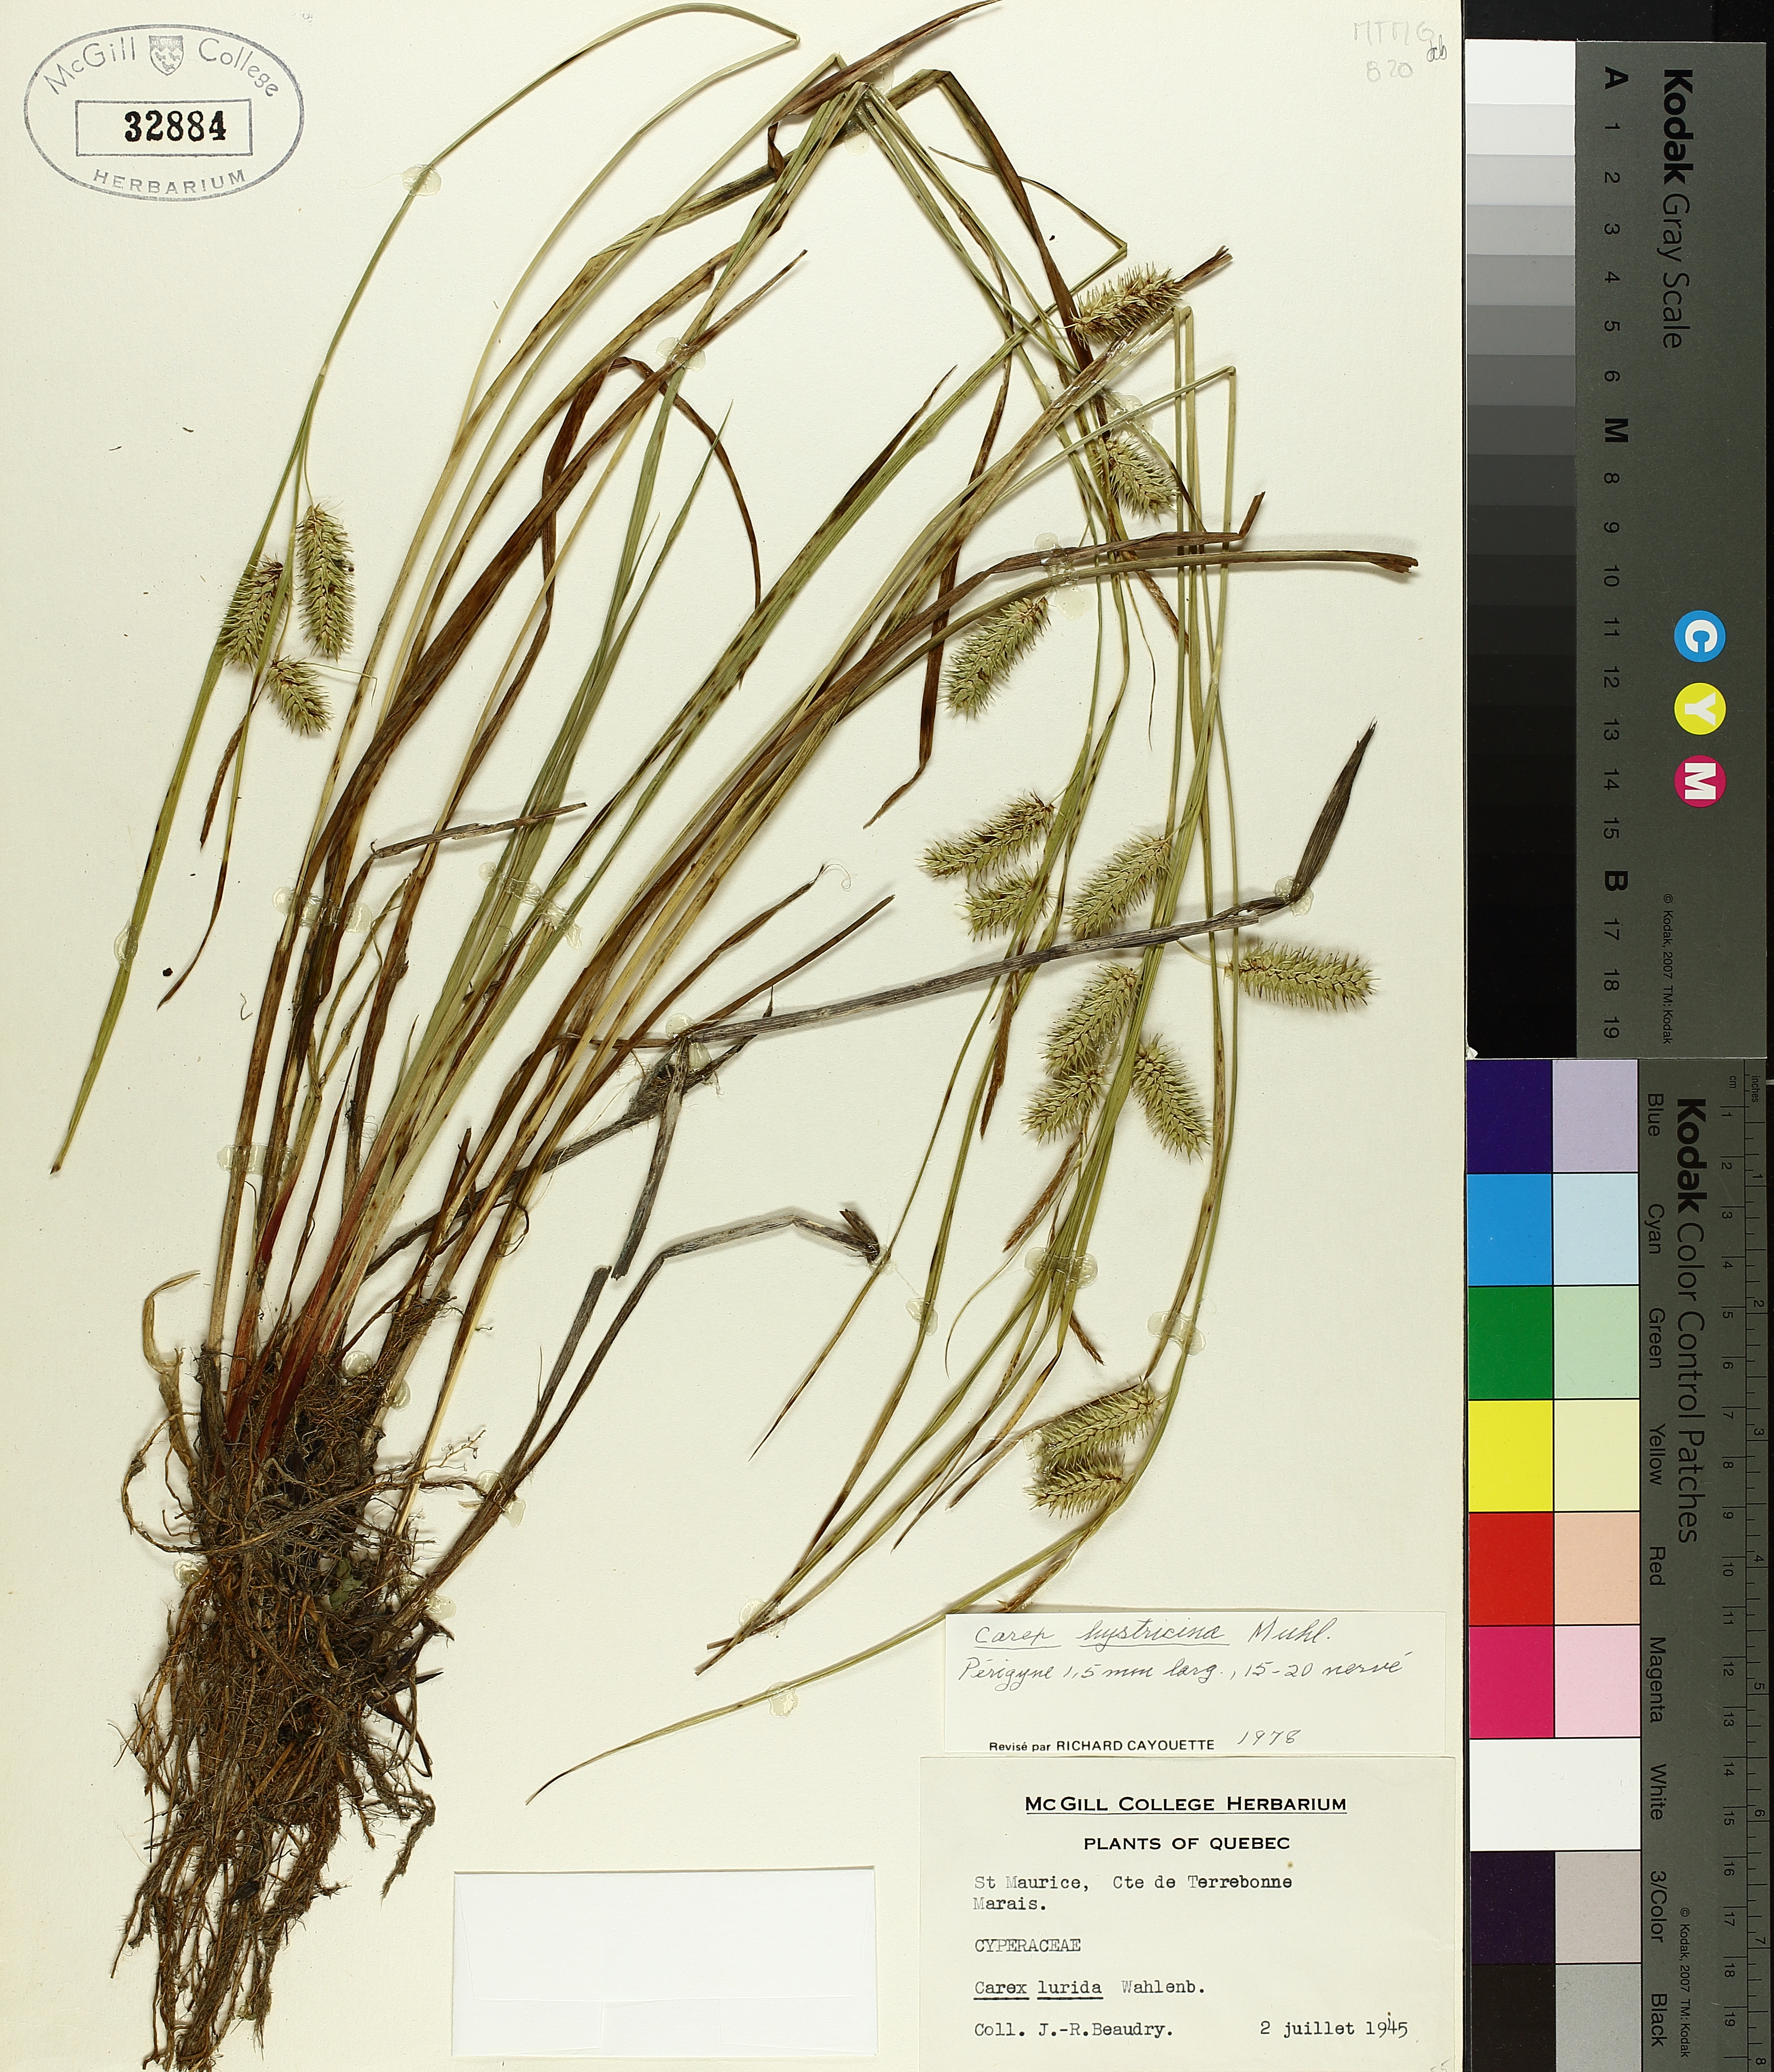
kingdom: Plantae
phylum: Tracheophyta
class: Liliopsida
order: Poales
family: Cyperaceae
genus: Carex
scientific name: Carex hystericina
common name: Bottlebrush sedge
